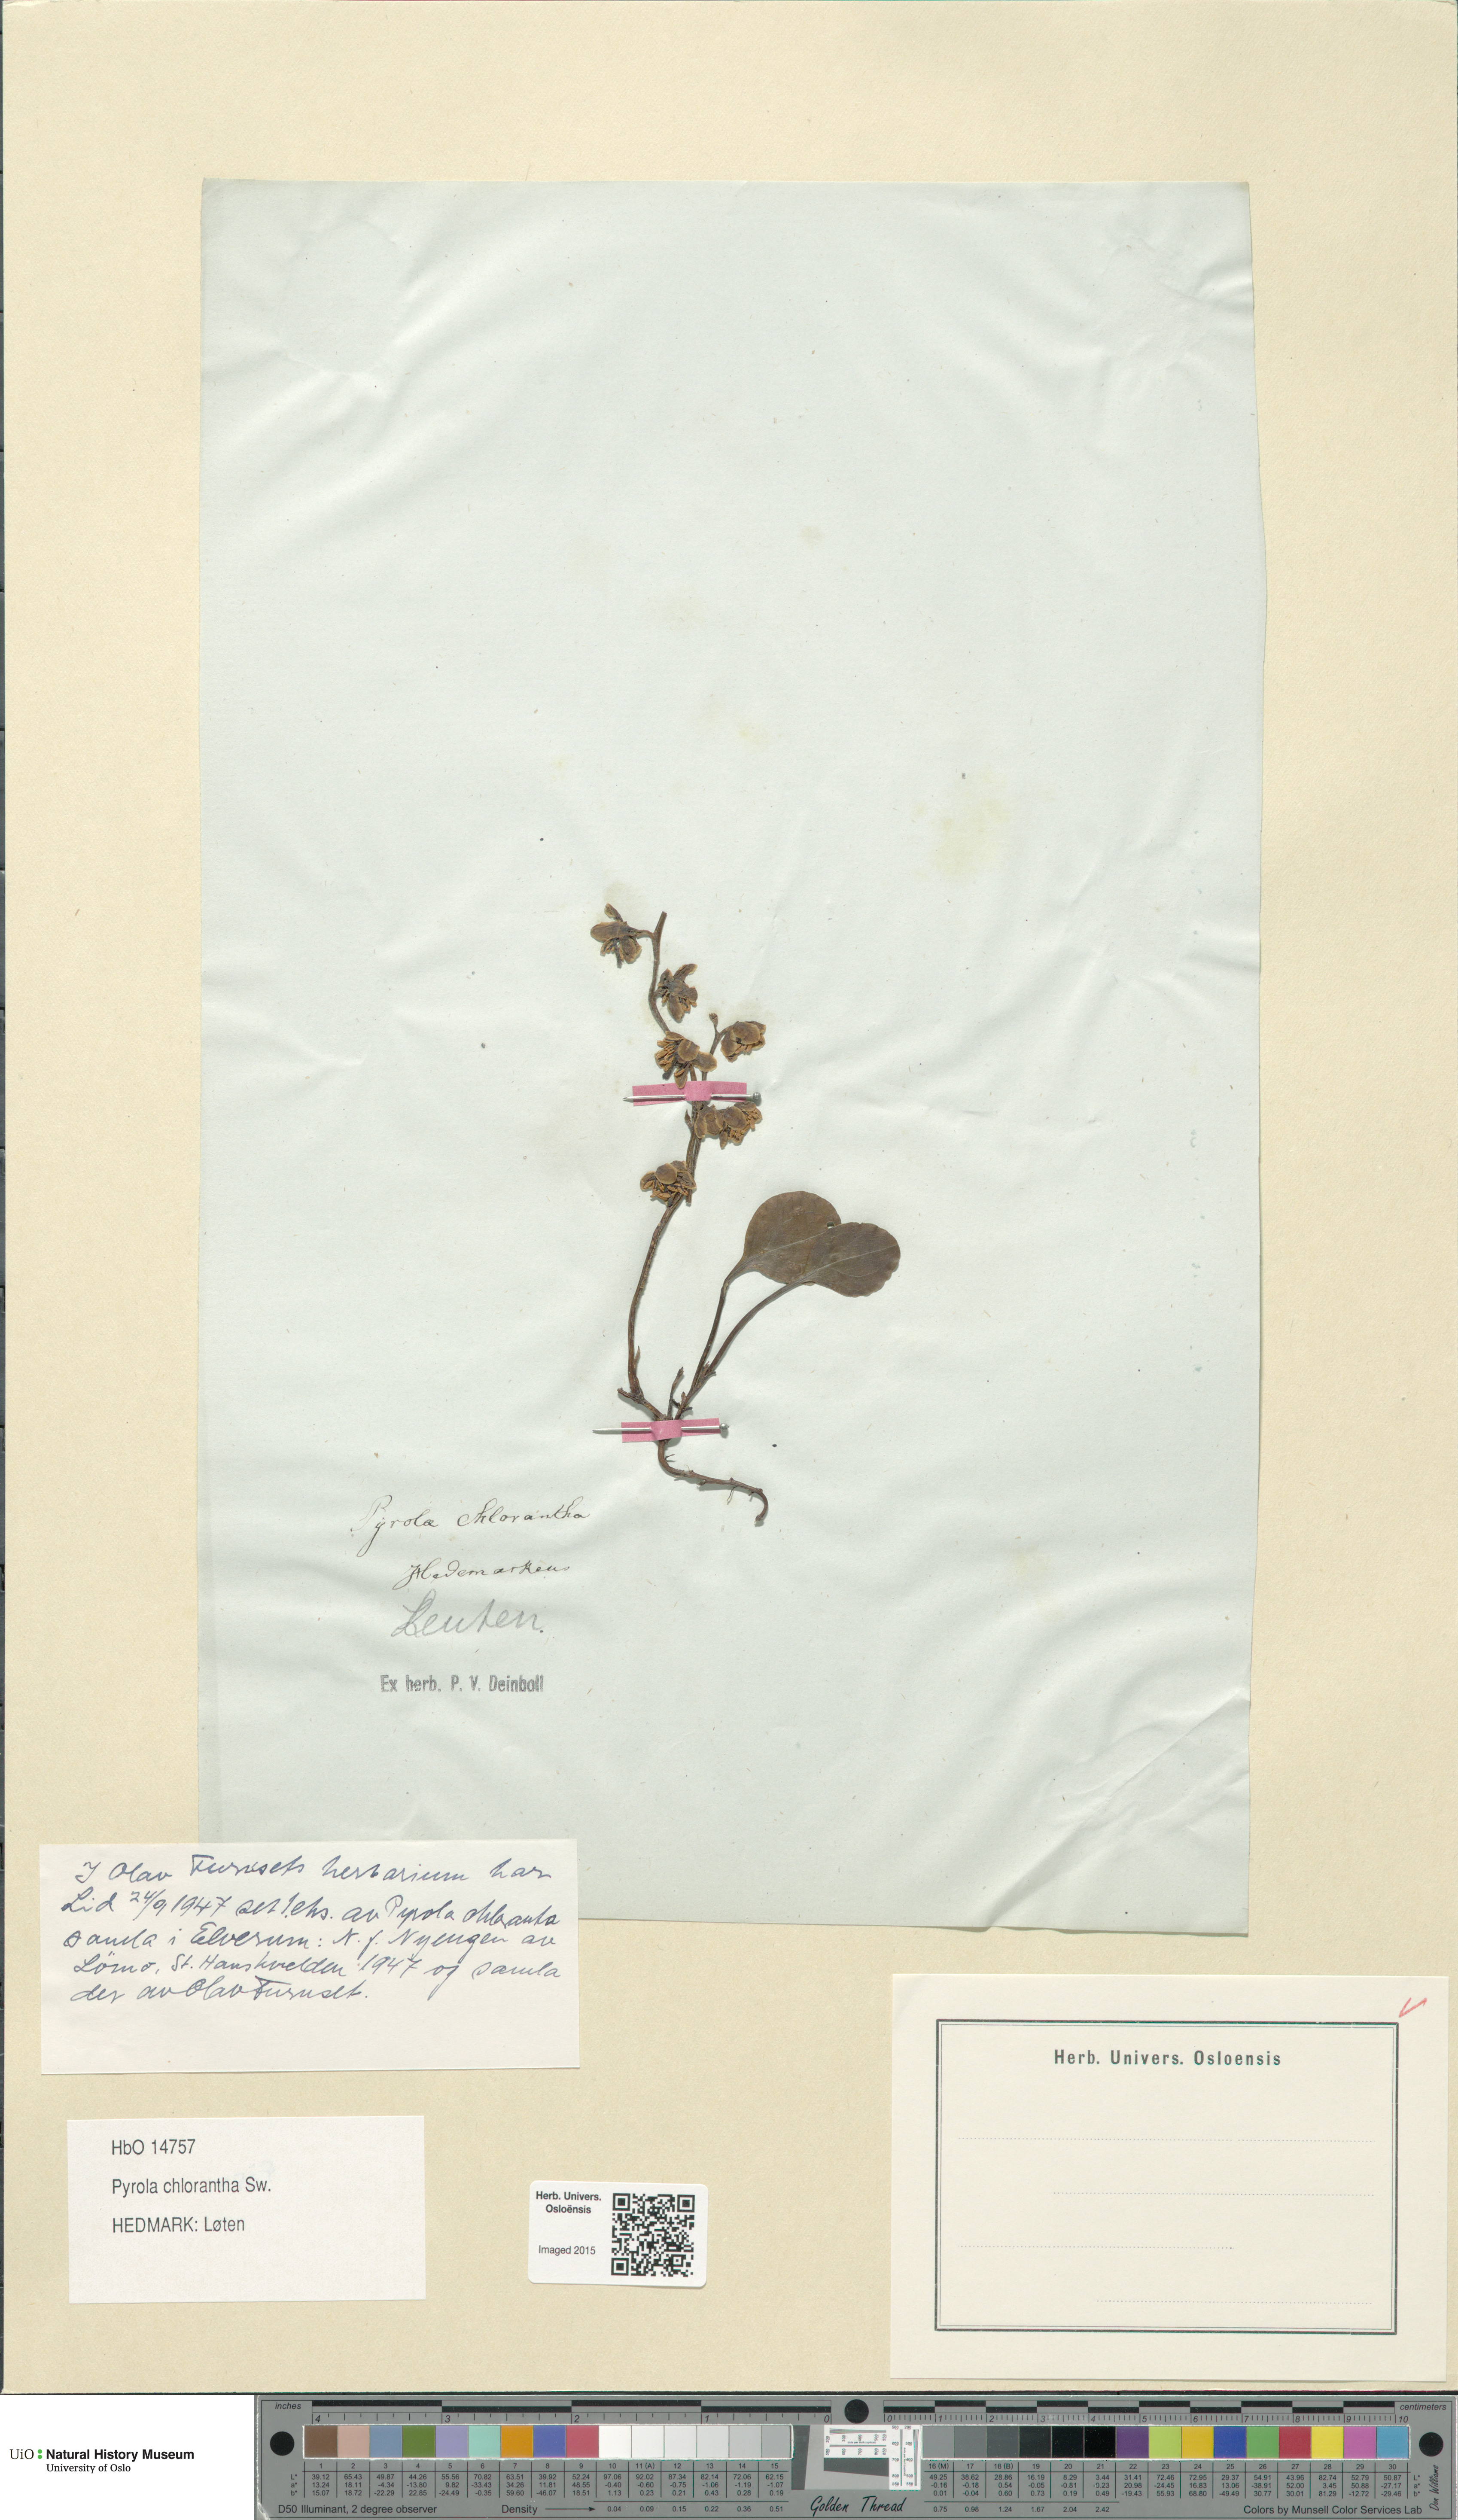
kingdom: Plantae
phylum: Tracheophyta
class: Magnoliopsida
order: Ericales
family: Ericaceae
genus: Pyrola
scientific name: Pyrola chlorantha
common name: Green wintergreen
